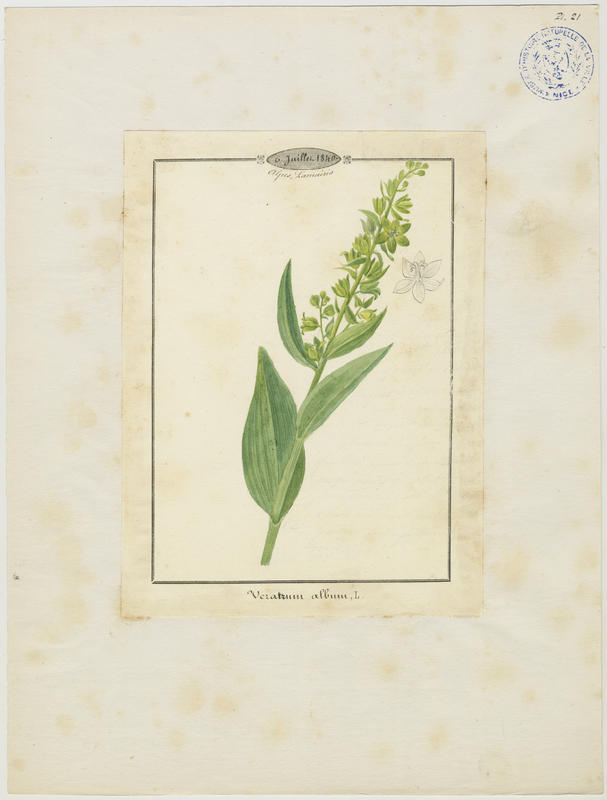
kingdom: Plantae
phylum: Tracheophyta
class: Liliopsida
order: Liliales
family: Melanthiaceae
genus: Veratrum
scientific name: Veratrum album
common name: White veratrum
